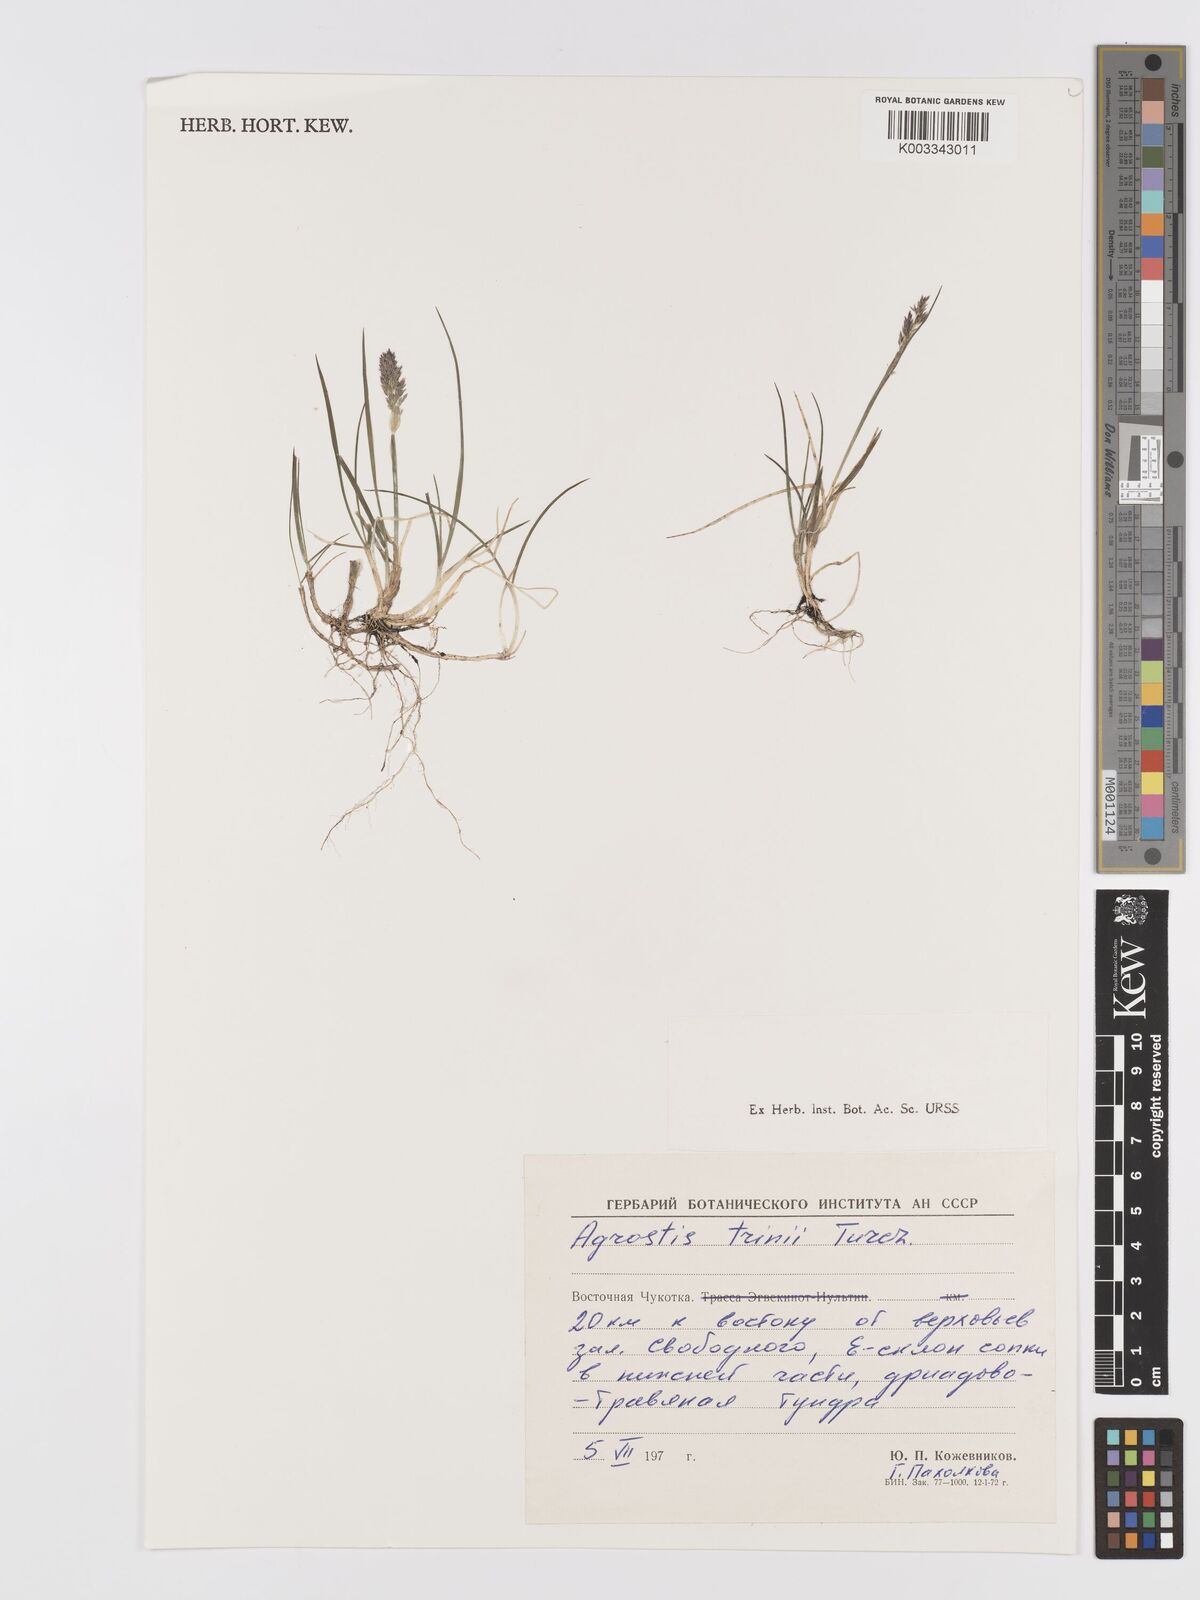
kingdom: Plantae
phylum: Tracheophyta
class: Liliopsida
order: Poales
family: Poaceae
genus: Agrostis
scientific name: Agrostis vinealis
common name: Brown bent
